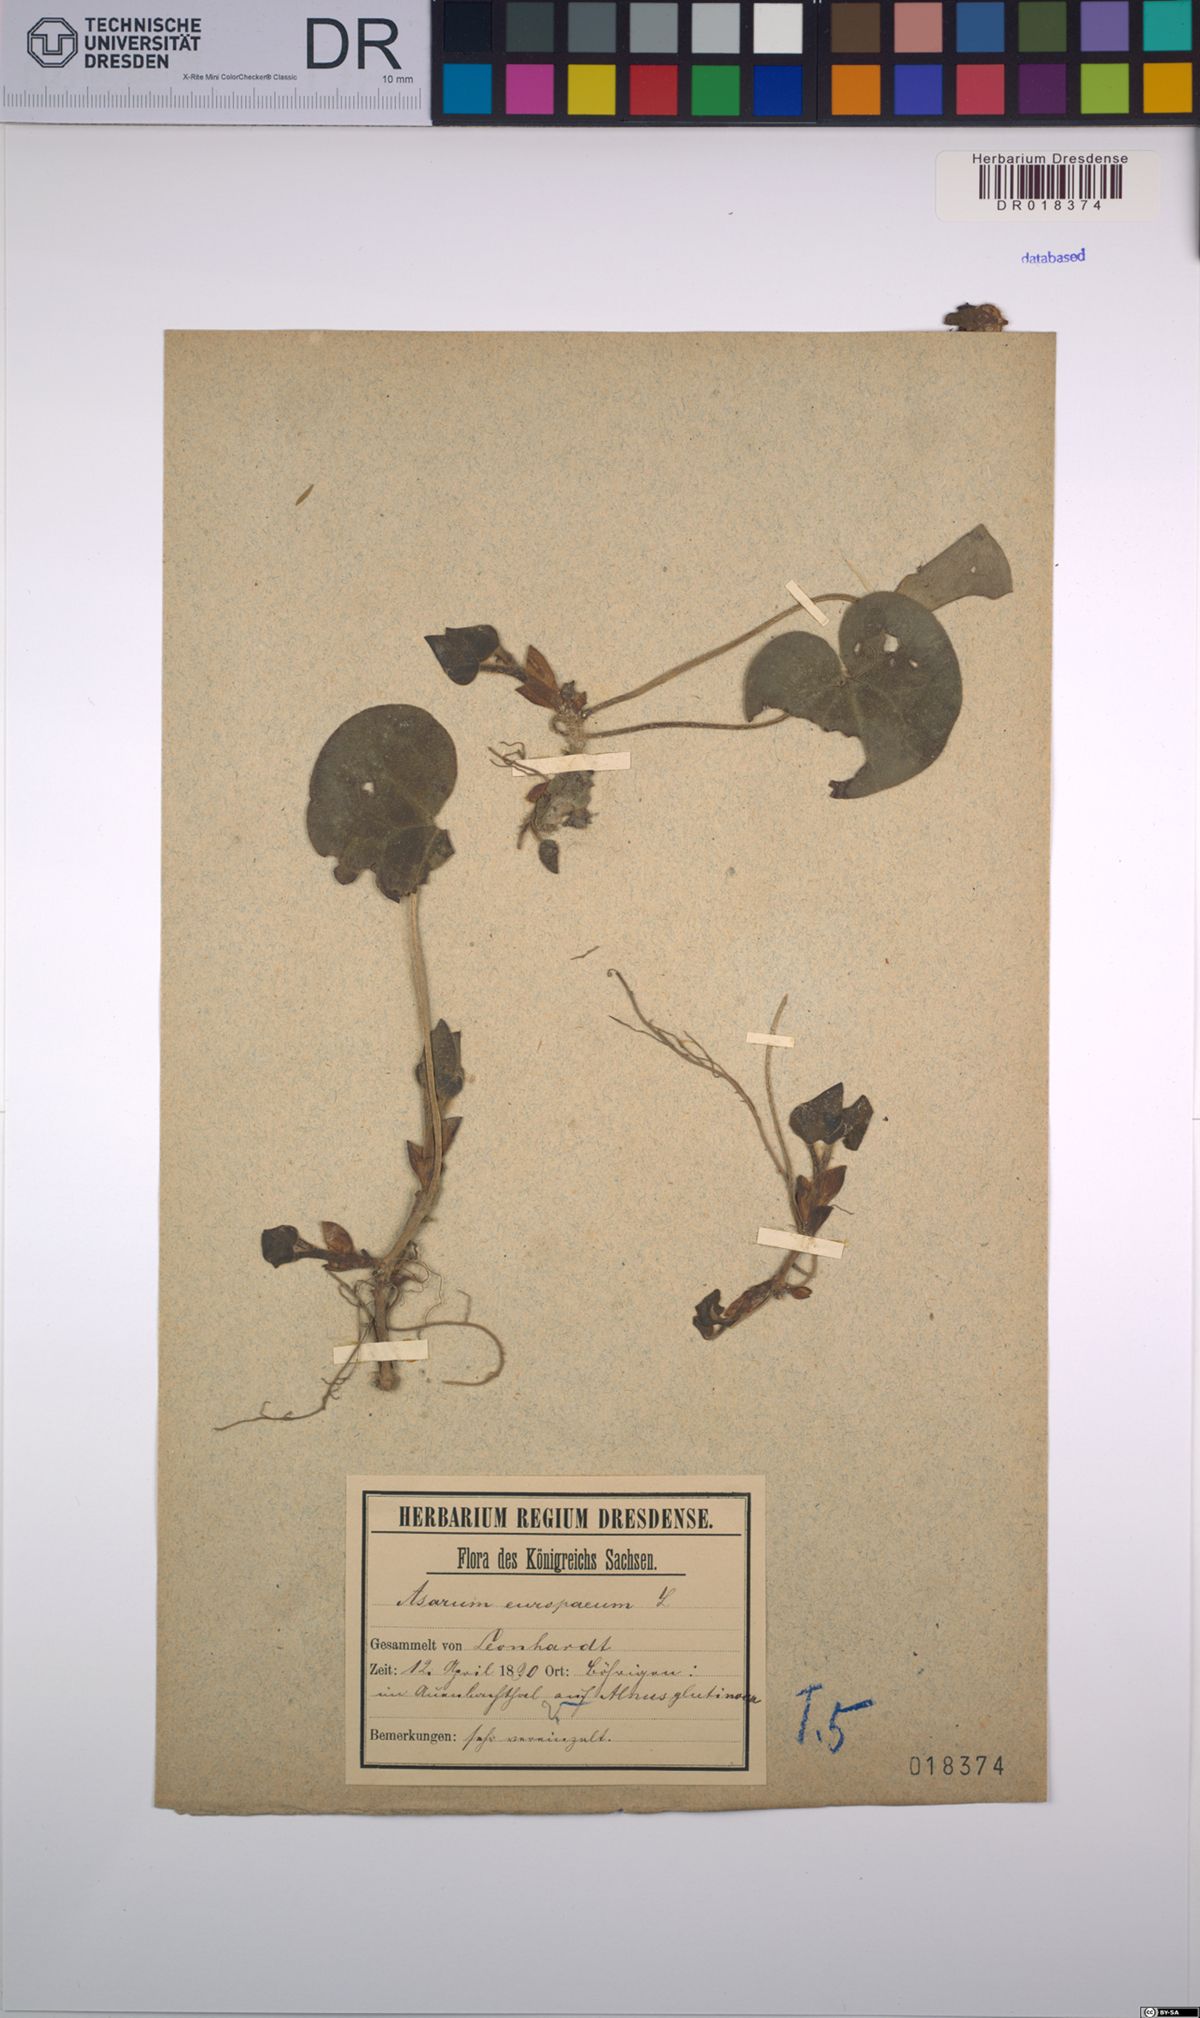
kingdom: Plantae
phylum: Tracheophyta
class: Magnoliopsida
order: Piperales
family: Aristolochiaceae
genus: Asarum
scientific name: Asarum europaeum
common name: Asarabacca
